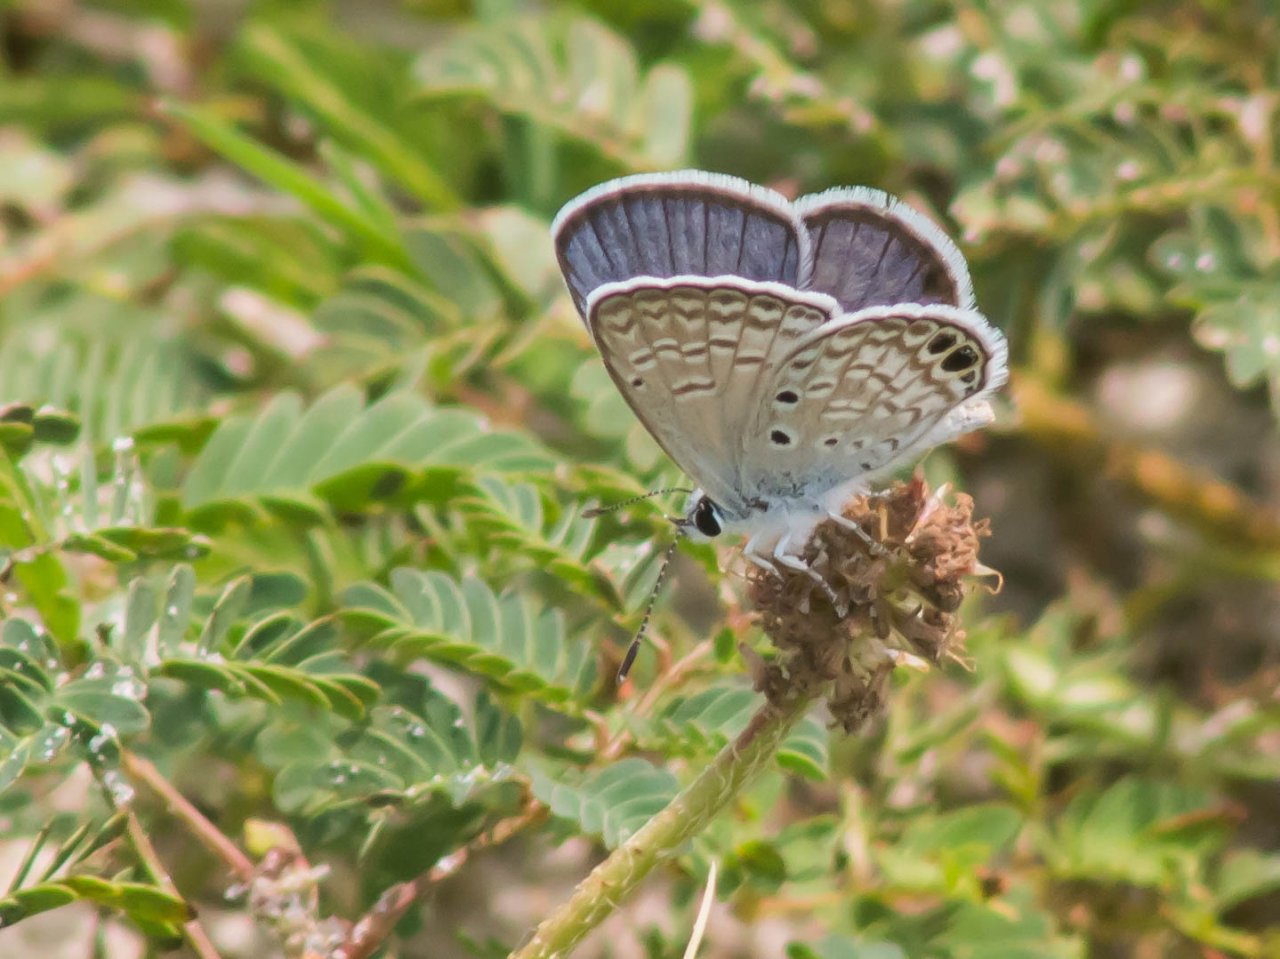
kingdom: Animalia
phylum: Arthropoda
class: Insecta
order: Lepidoptera
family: Lycaenidae
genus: Hemiargus
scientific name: Hemiargus ceraunus
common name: Ceraunus Blue
